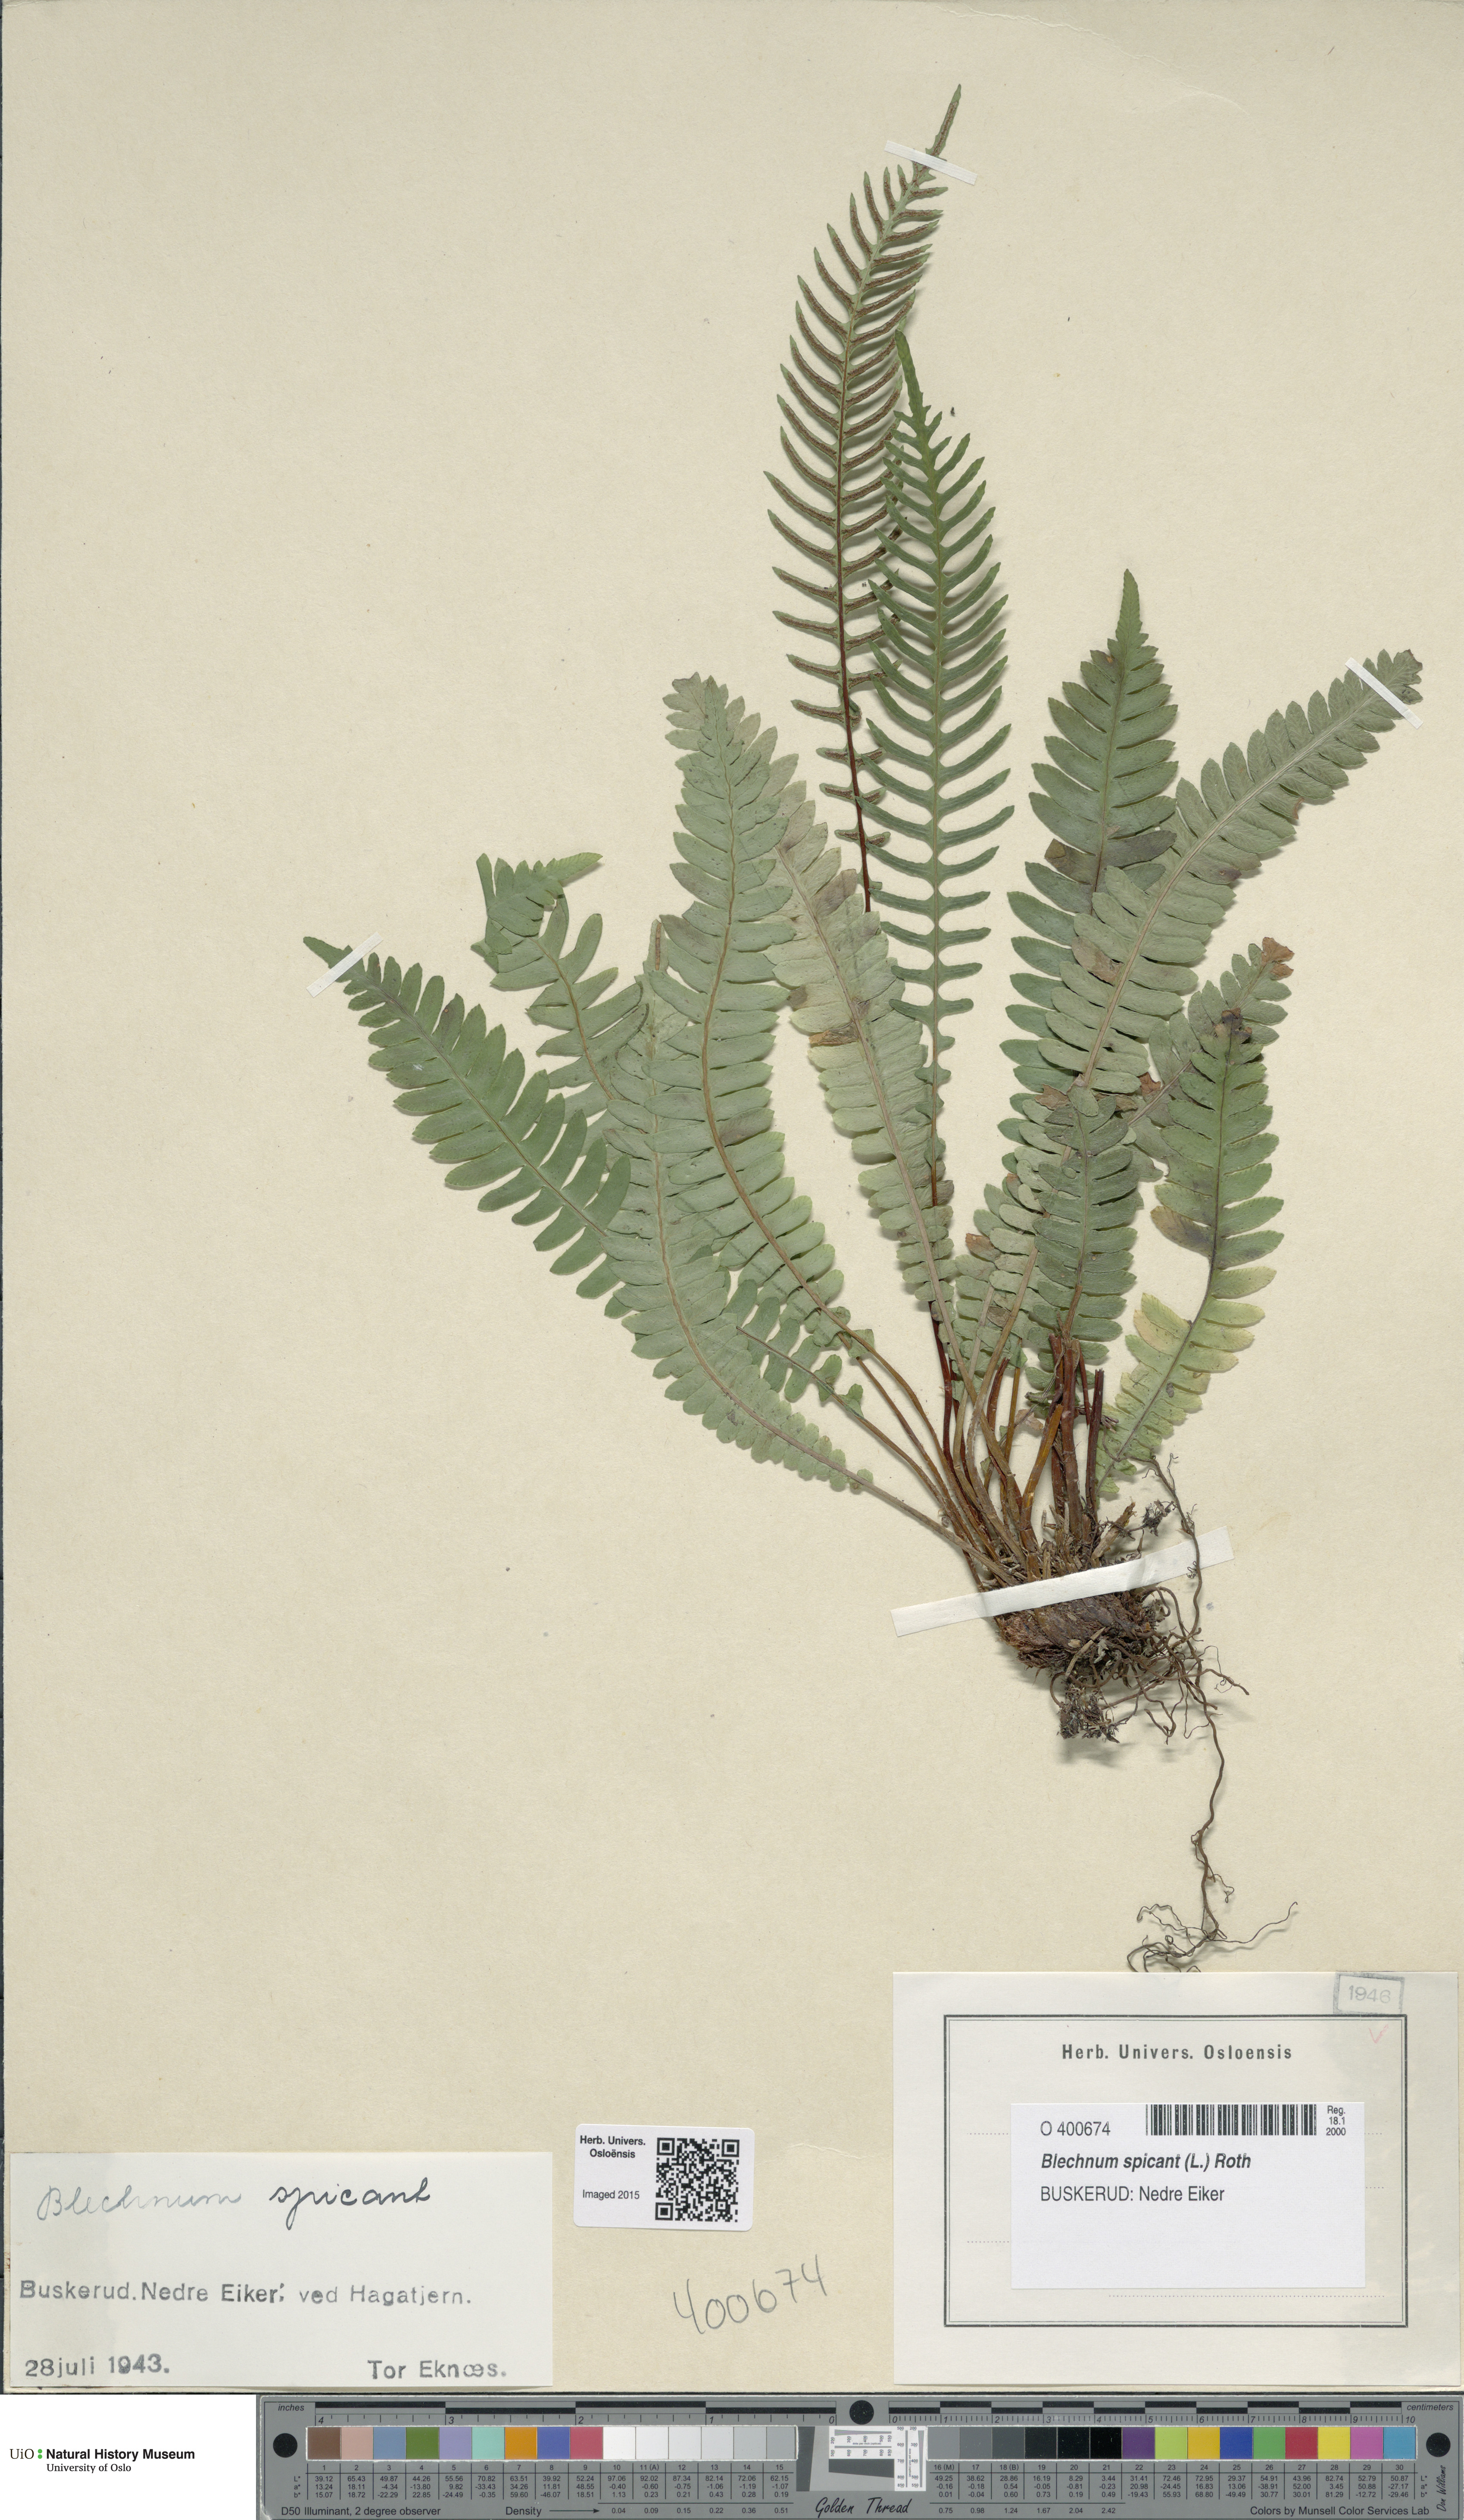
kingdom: Plantae
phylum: Tracheophyta
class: Polypodiopsida
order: Polypodiales
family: Blechnaceae
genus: Struthiopteris
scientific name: Struthiopteris spicant
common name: Deer fern
